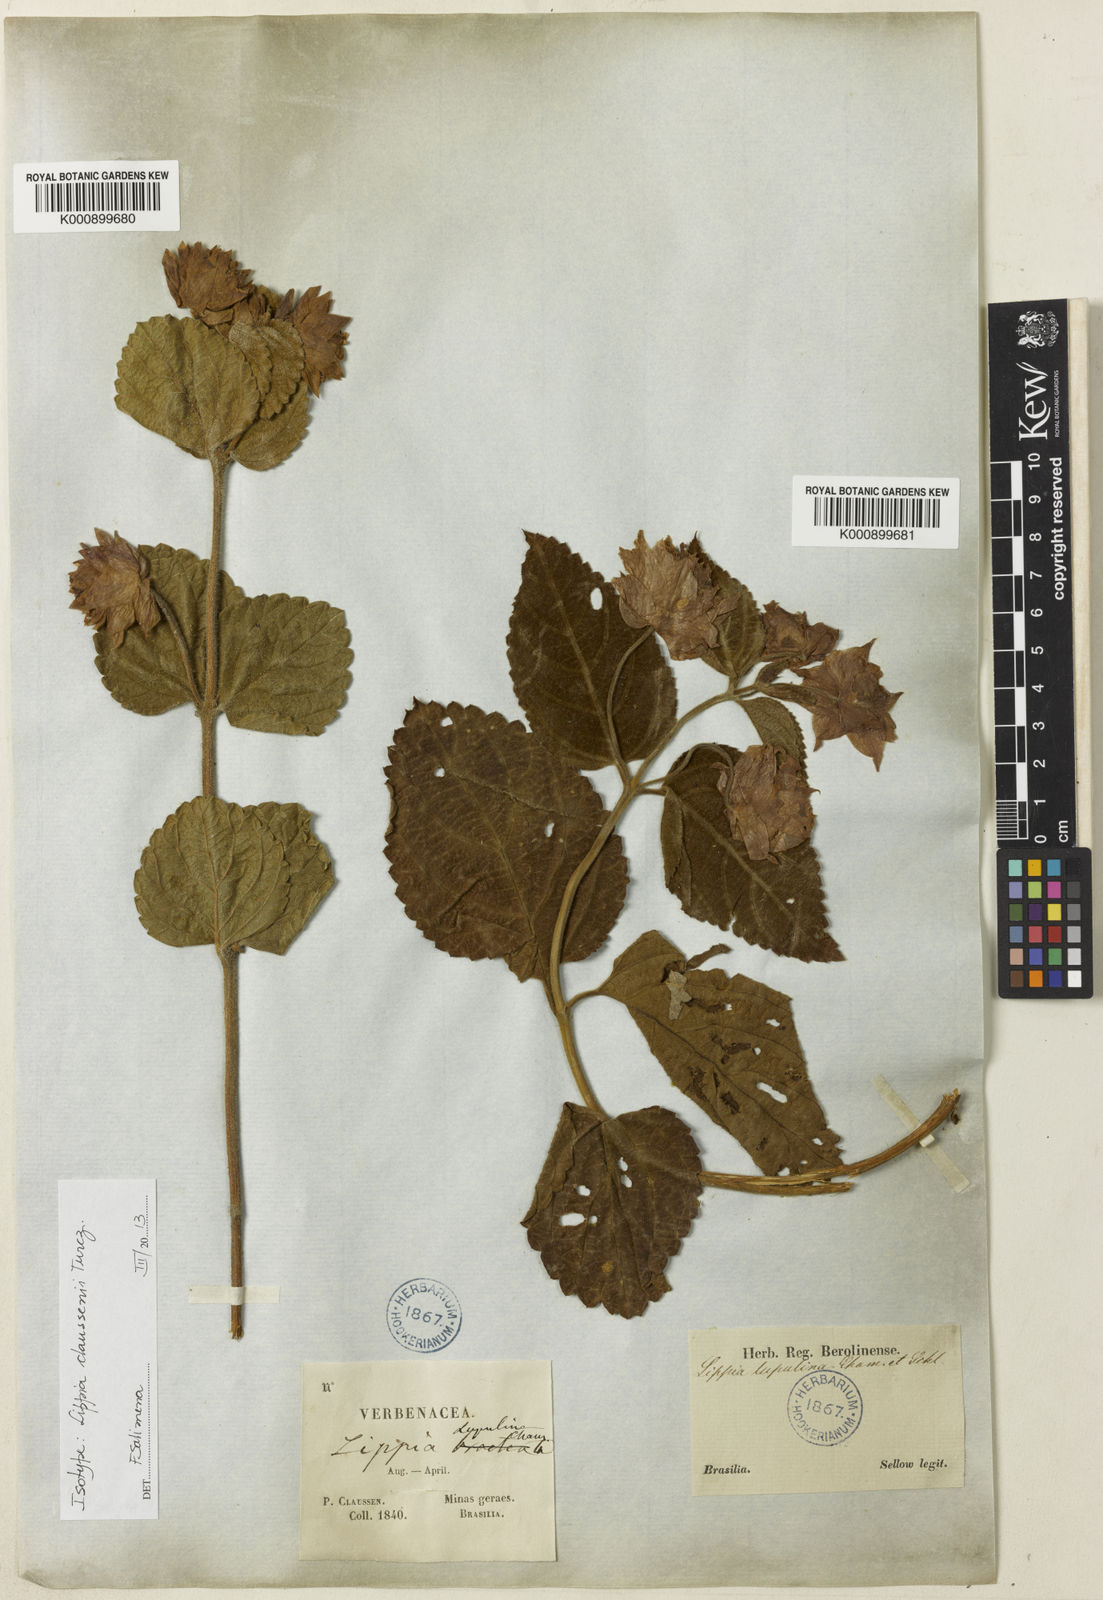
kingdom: Plantae
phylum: Tracheophyta
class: Magnoliopsida
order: Lamiales
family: Verbenaceae
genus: Lippia
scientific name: Lippia
